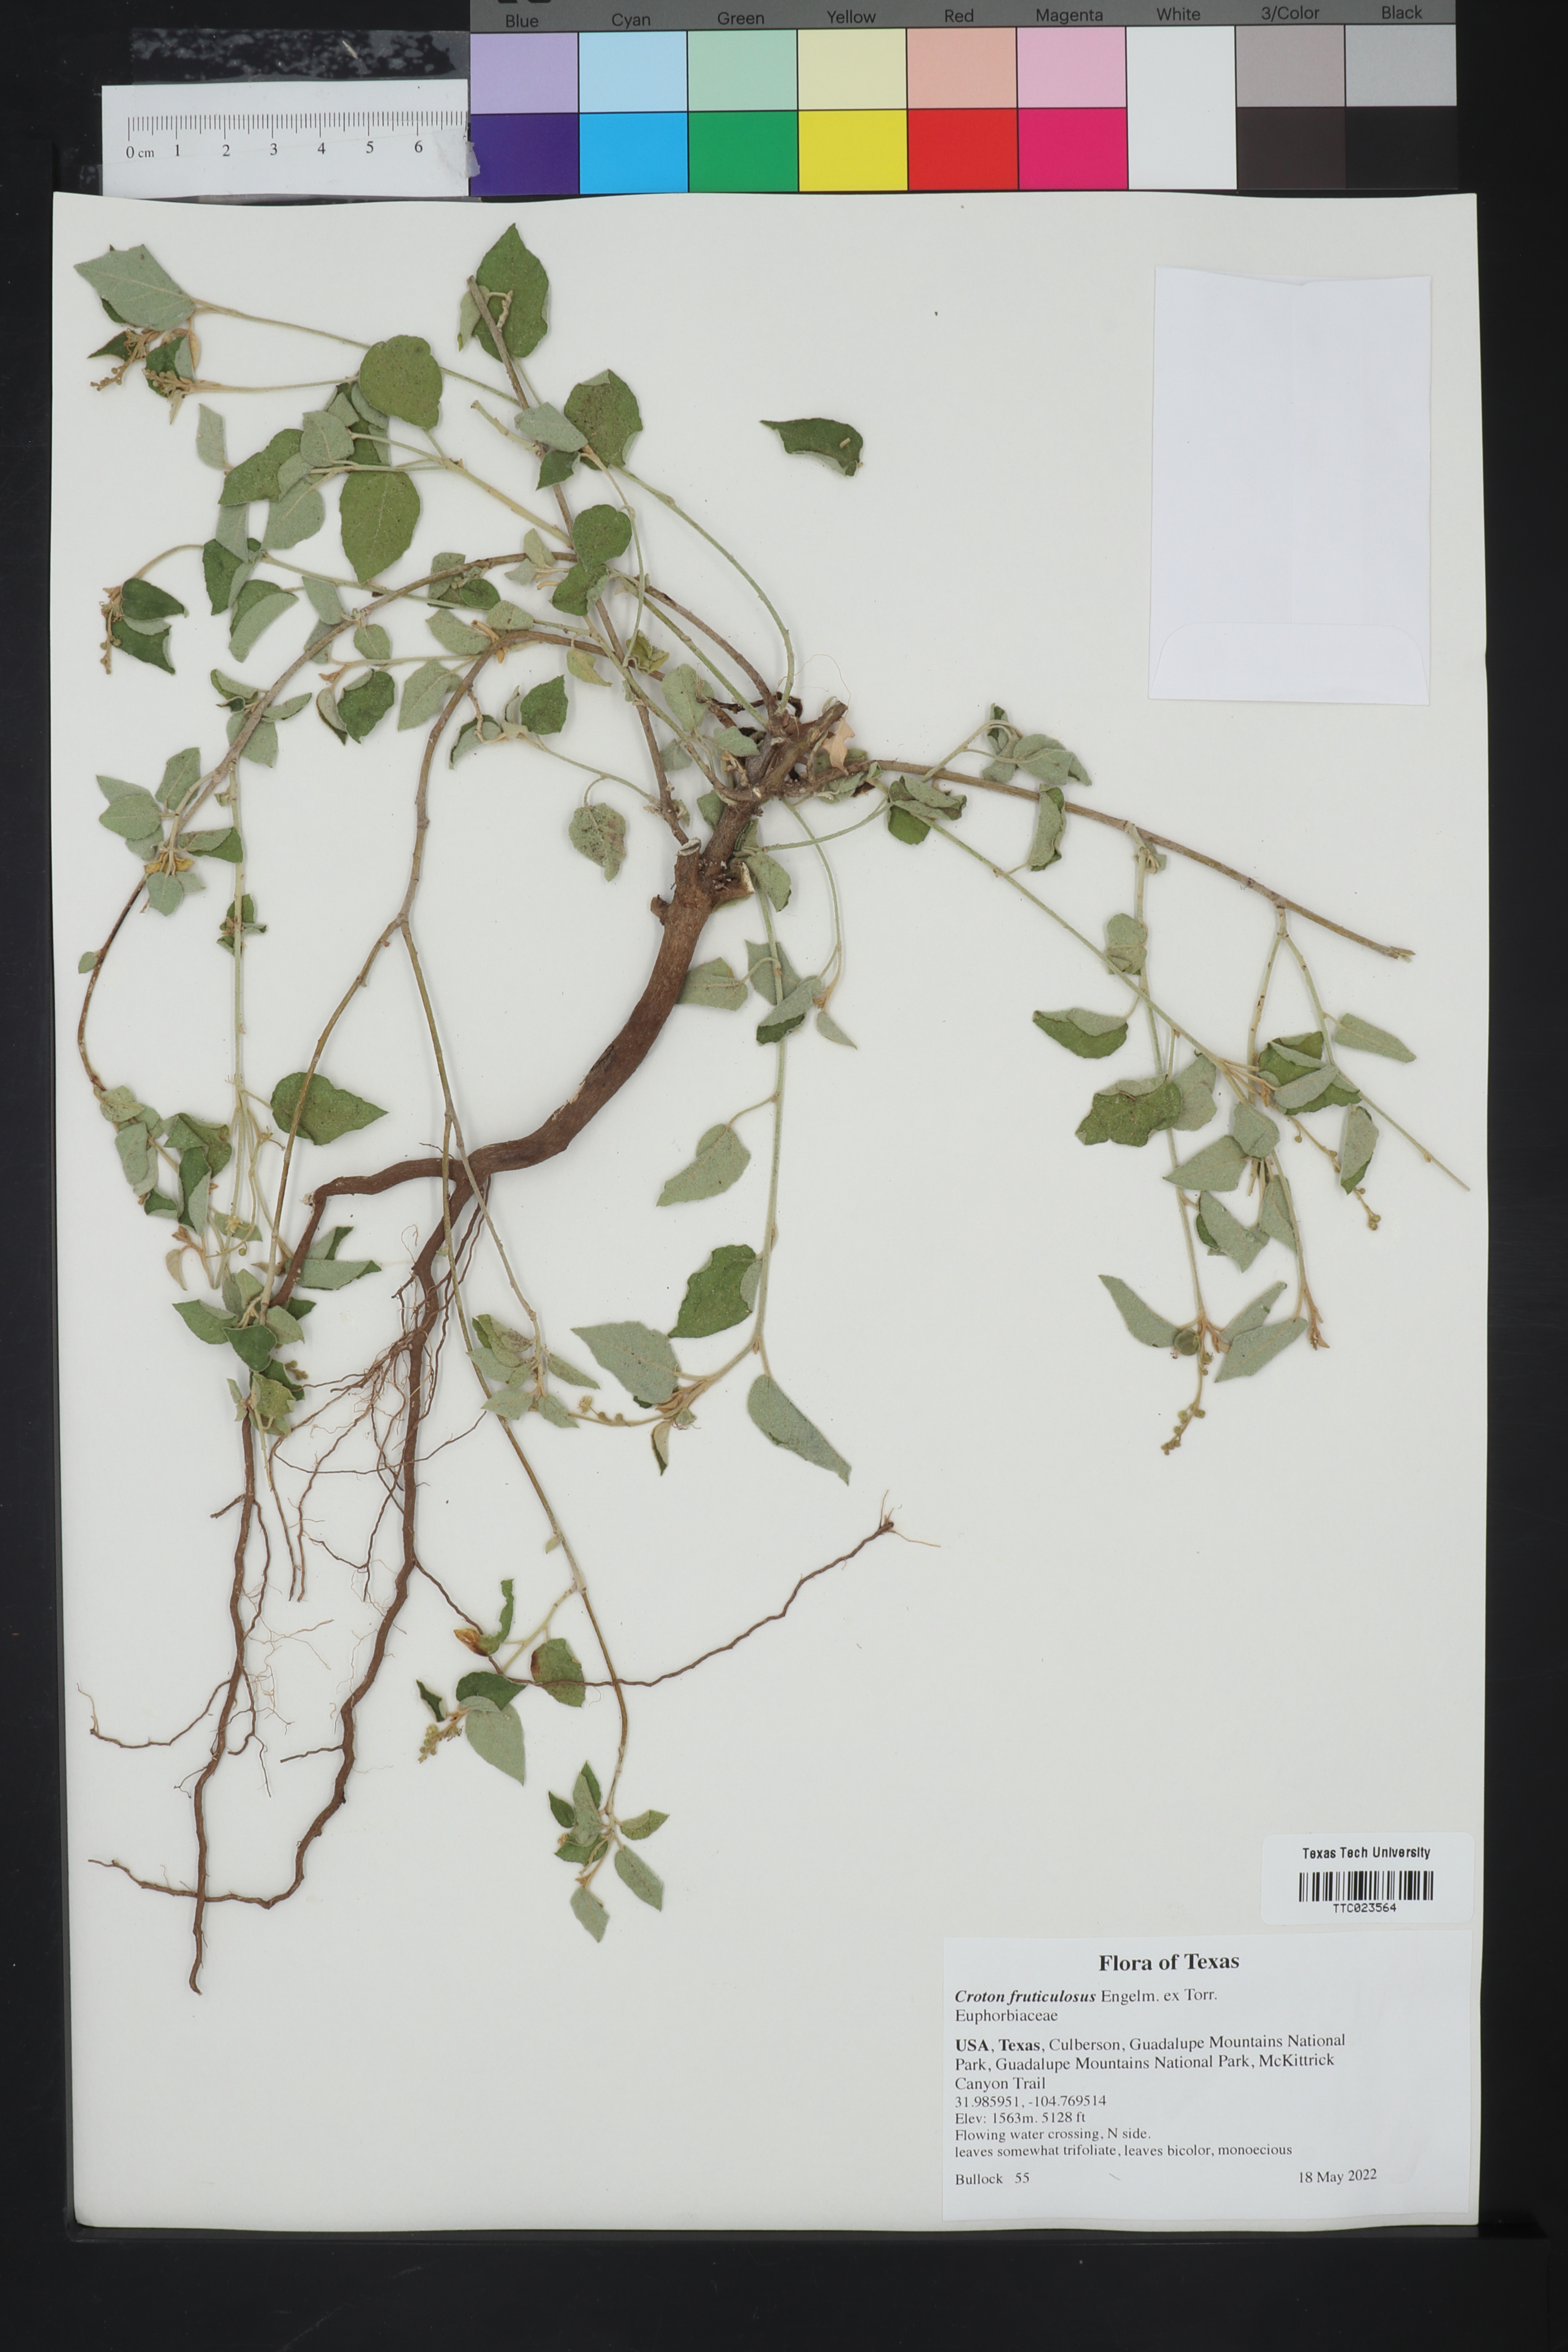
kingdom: Plantae
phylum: Tracheophyta
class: Magnoliopsida
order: Malpighiales
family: Euphorbiaceae
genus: Croton
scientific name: Croton fruticulosus
